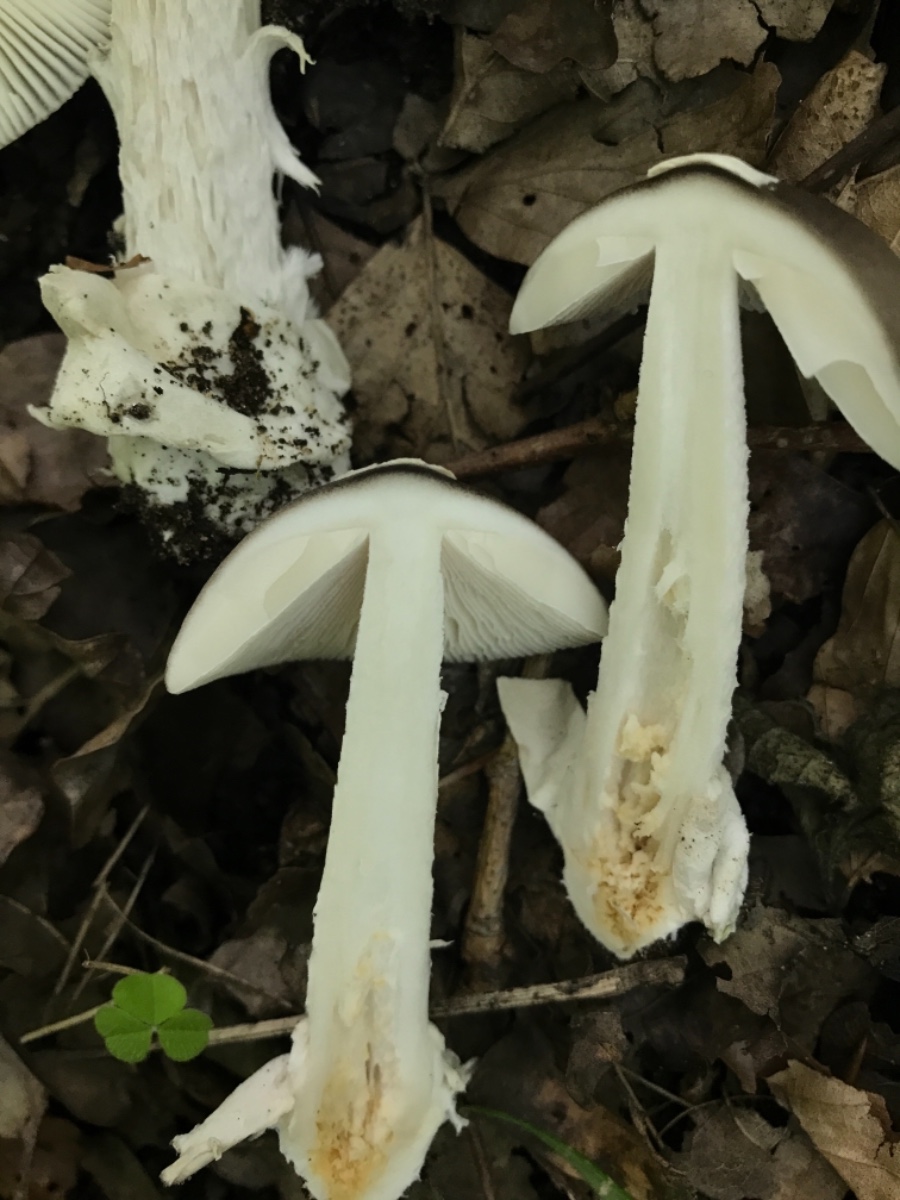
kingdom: Fungi
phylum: Basidiomycota
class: Agaricomycetes
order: Agaricales
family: Amanitaceae
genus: Amanita
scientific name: Amanita vaginata
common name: grå kam-fluesvamp
